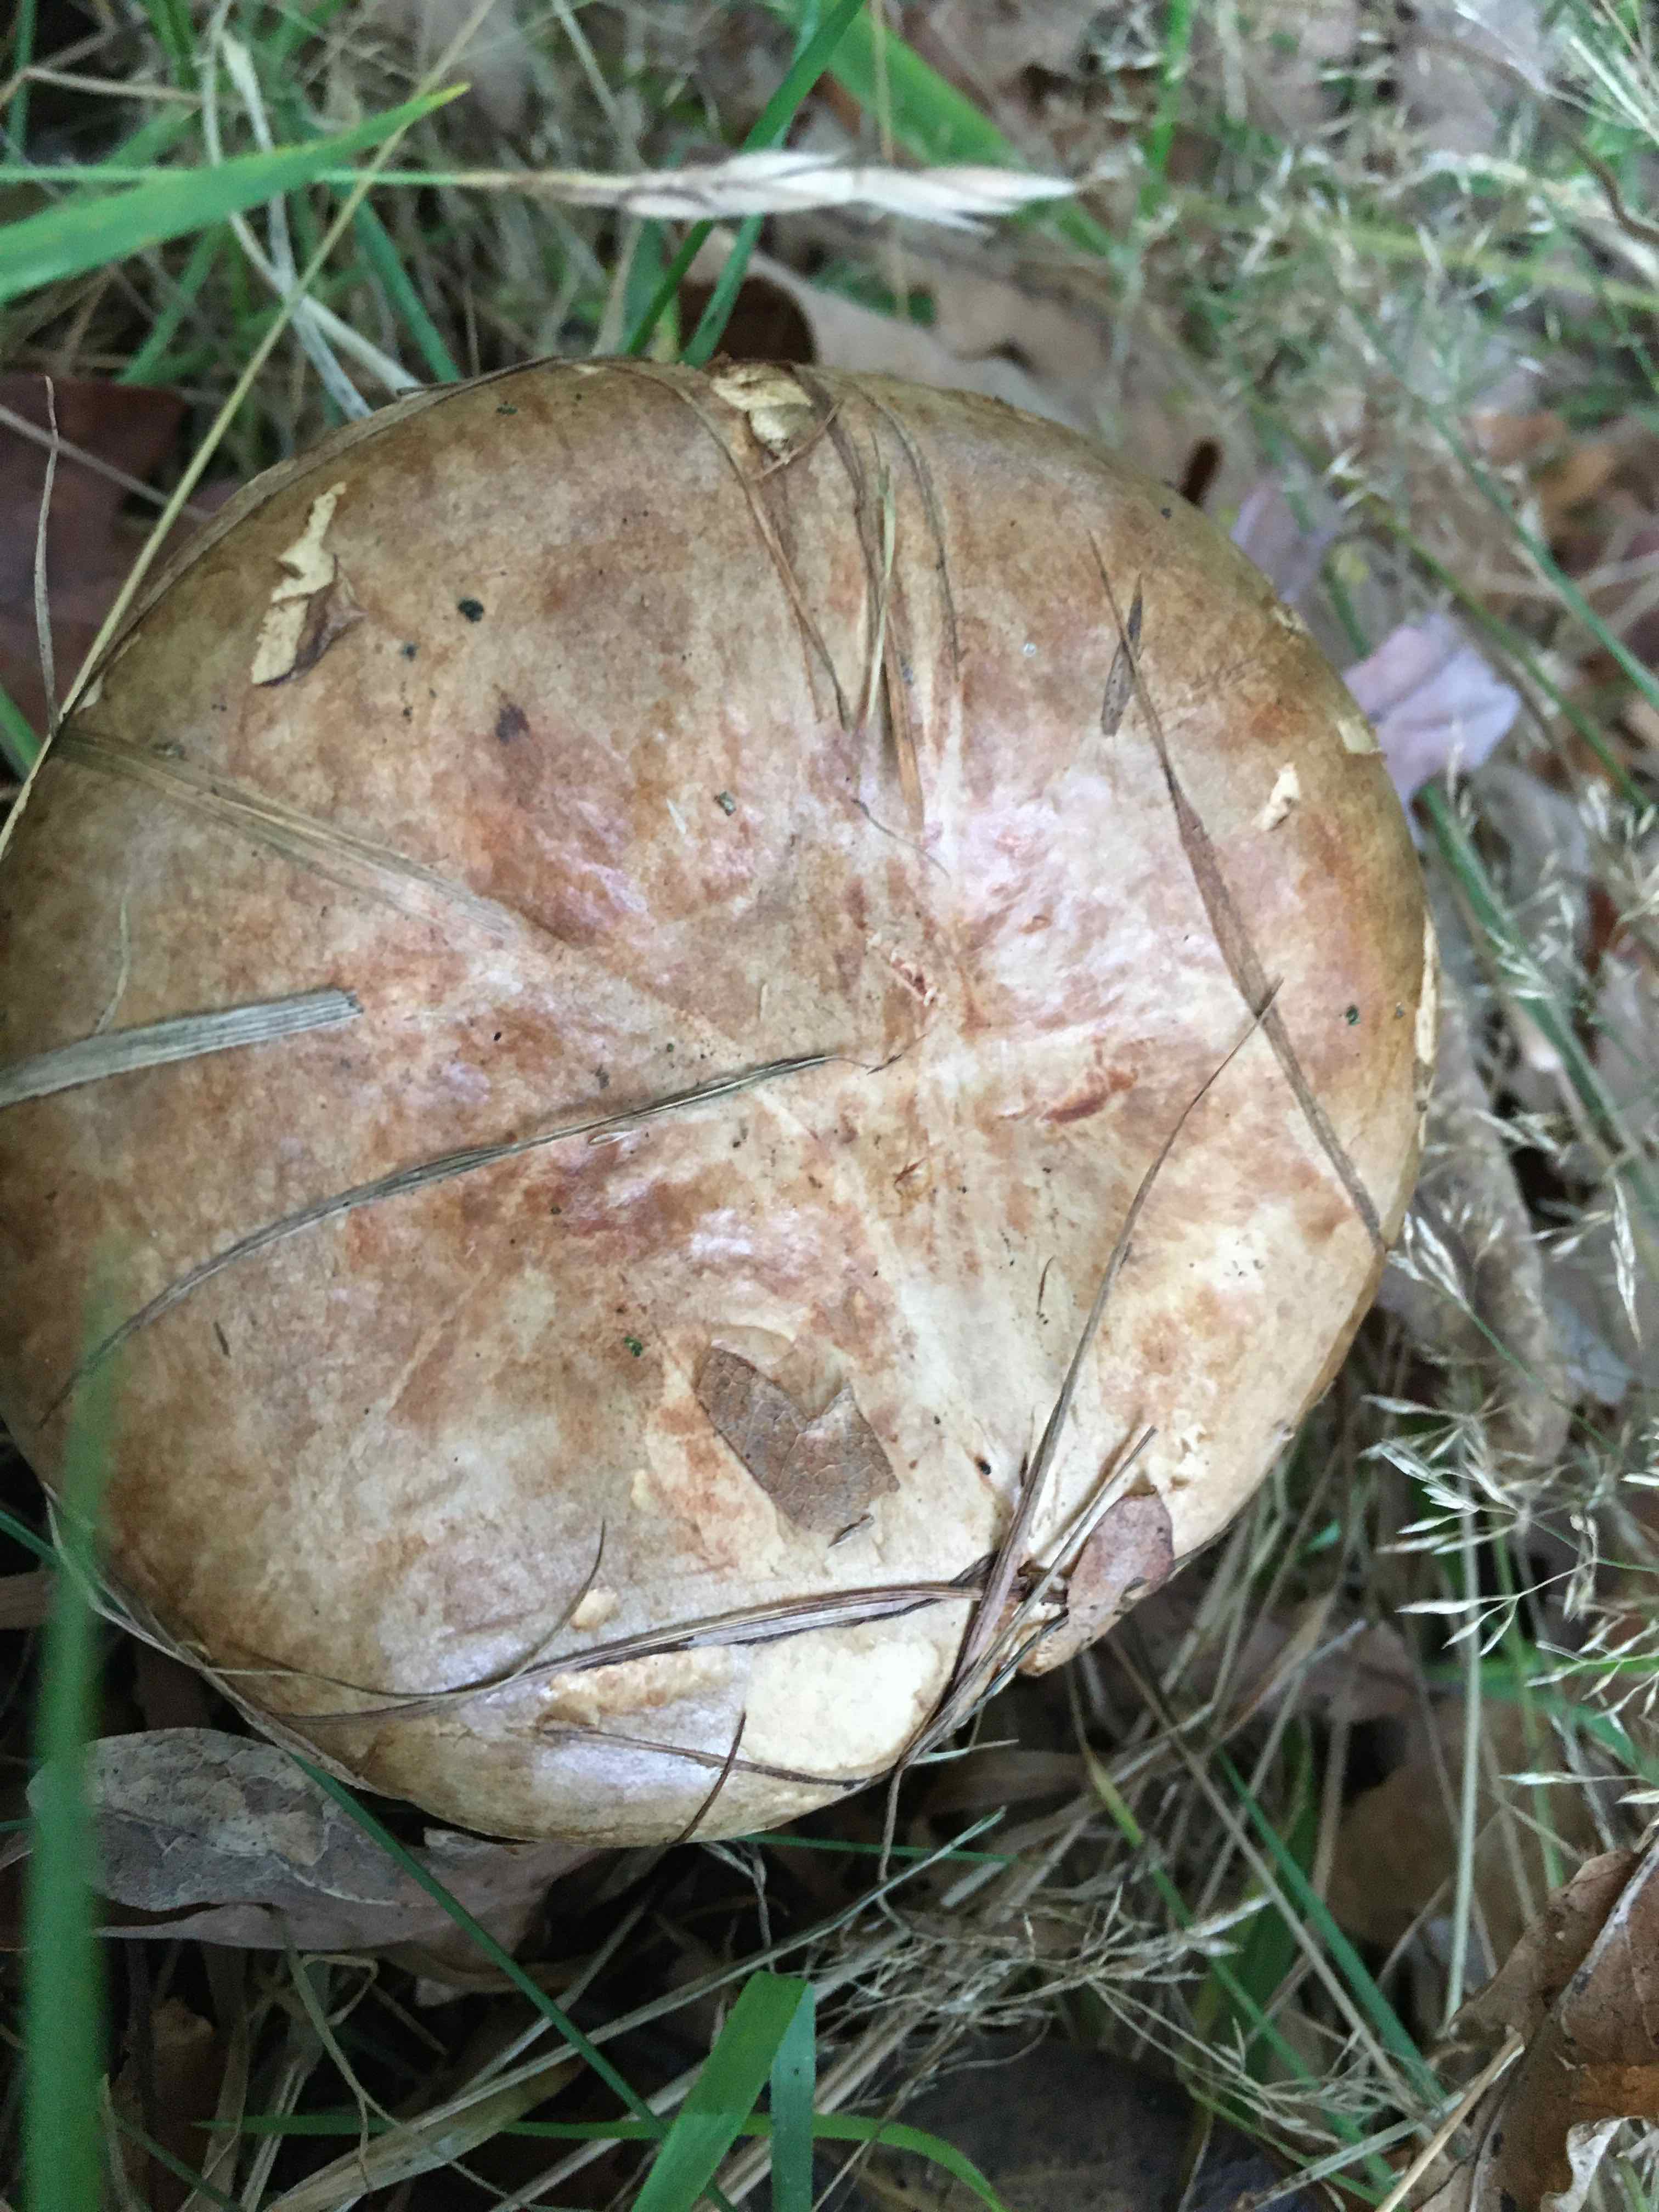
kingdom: Fungi
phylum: Basidiomycota
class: Agaricomycetes
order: Boletales
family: Paxillaceae
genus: Paxillus
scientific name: Paxillus involutus
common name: almindelig netbladhat
